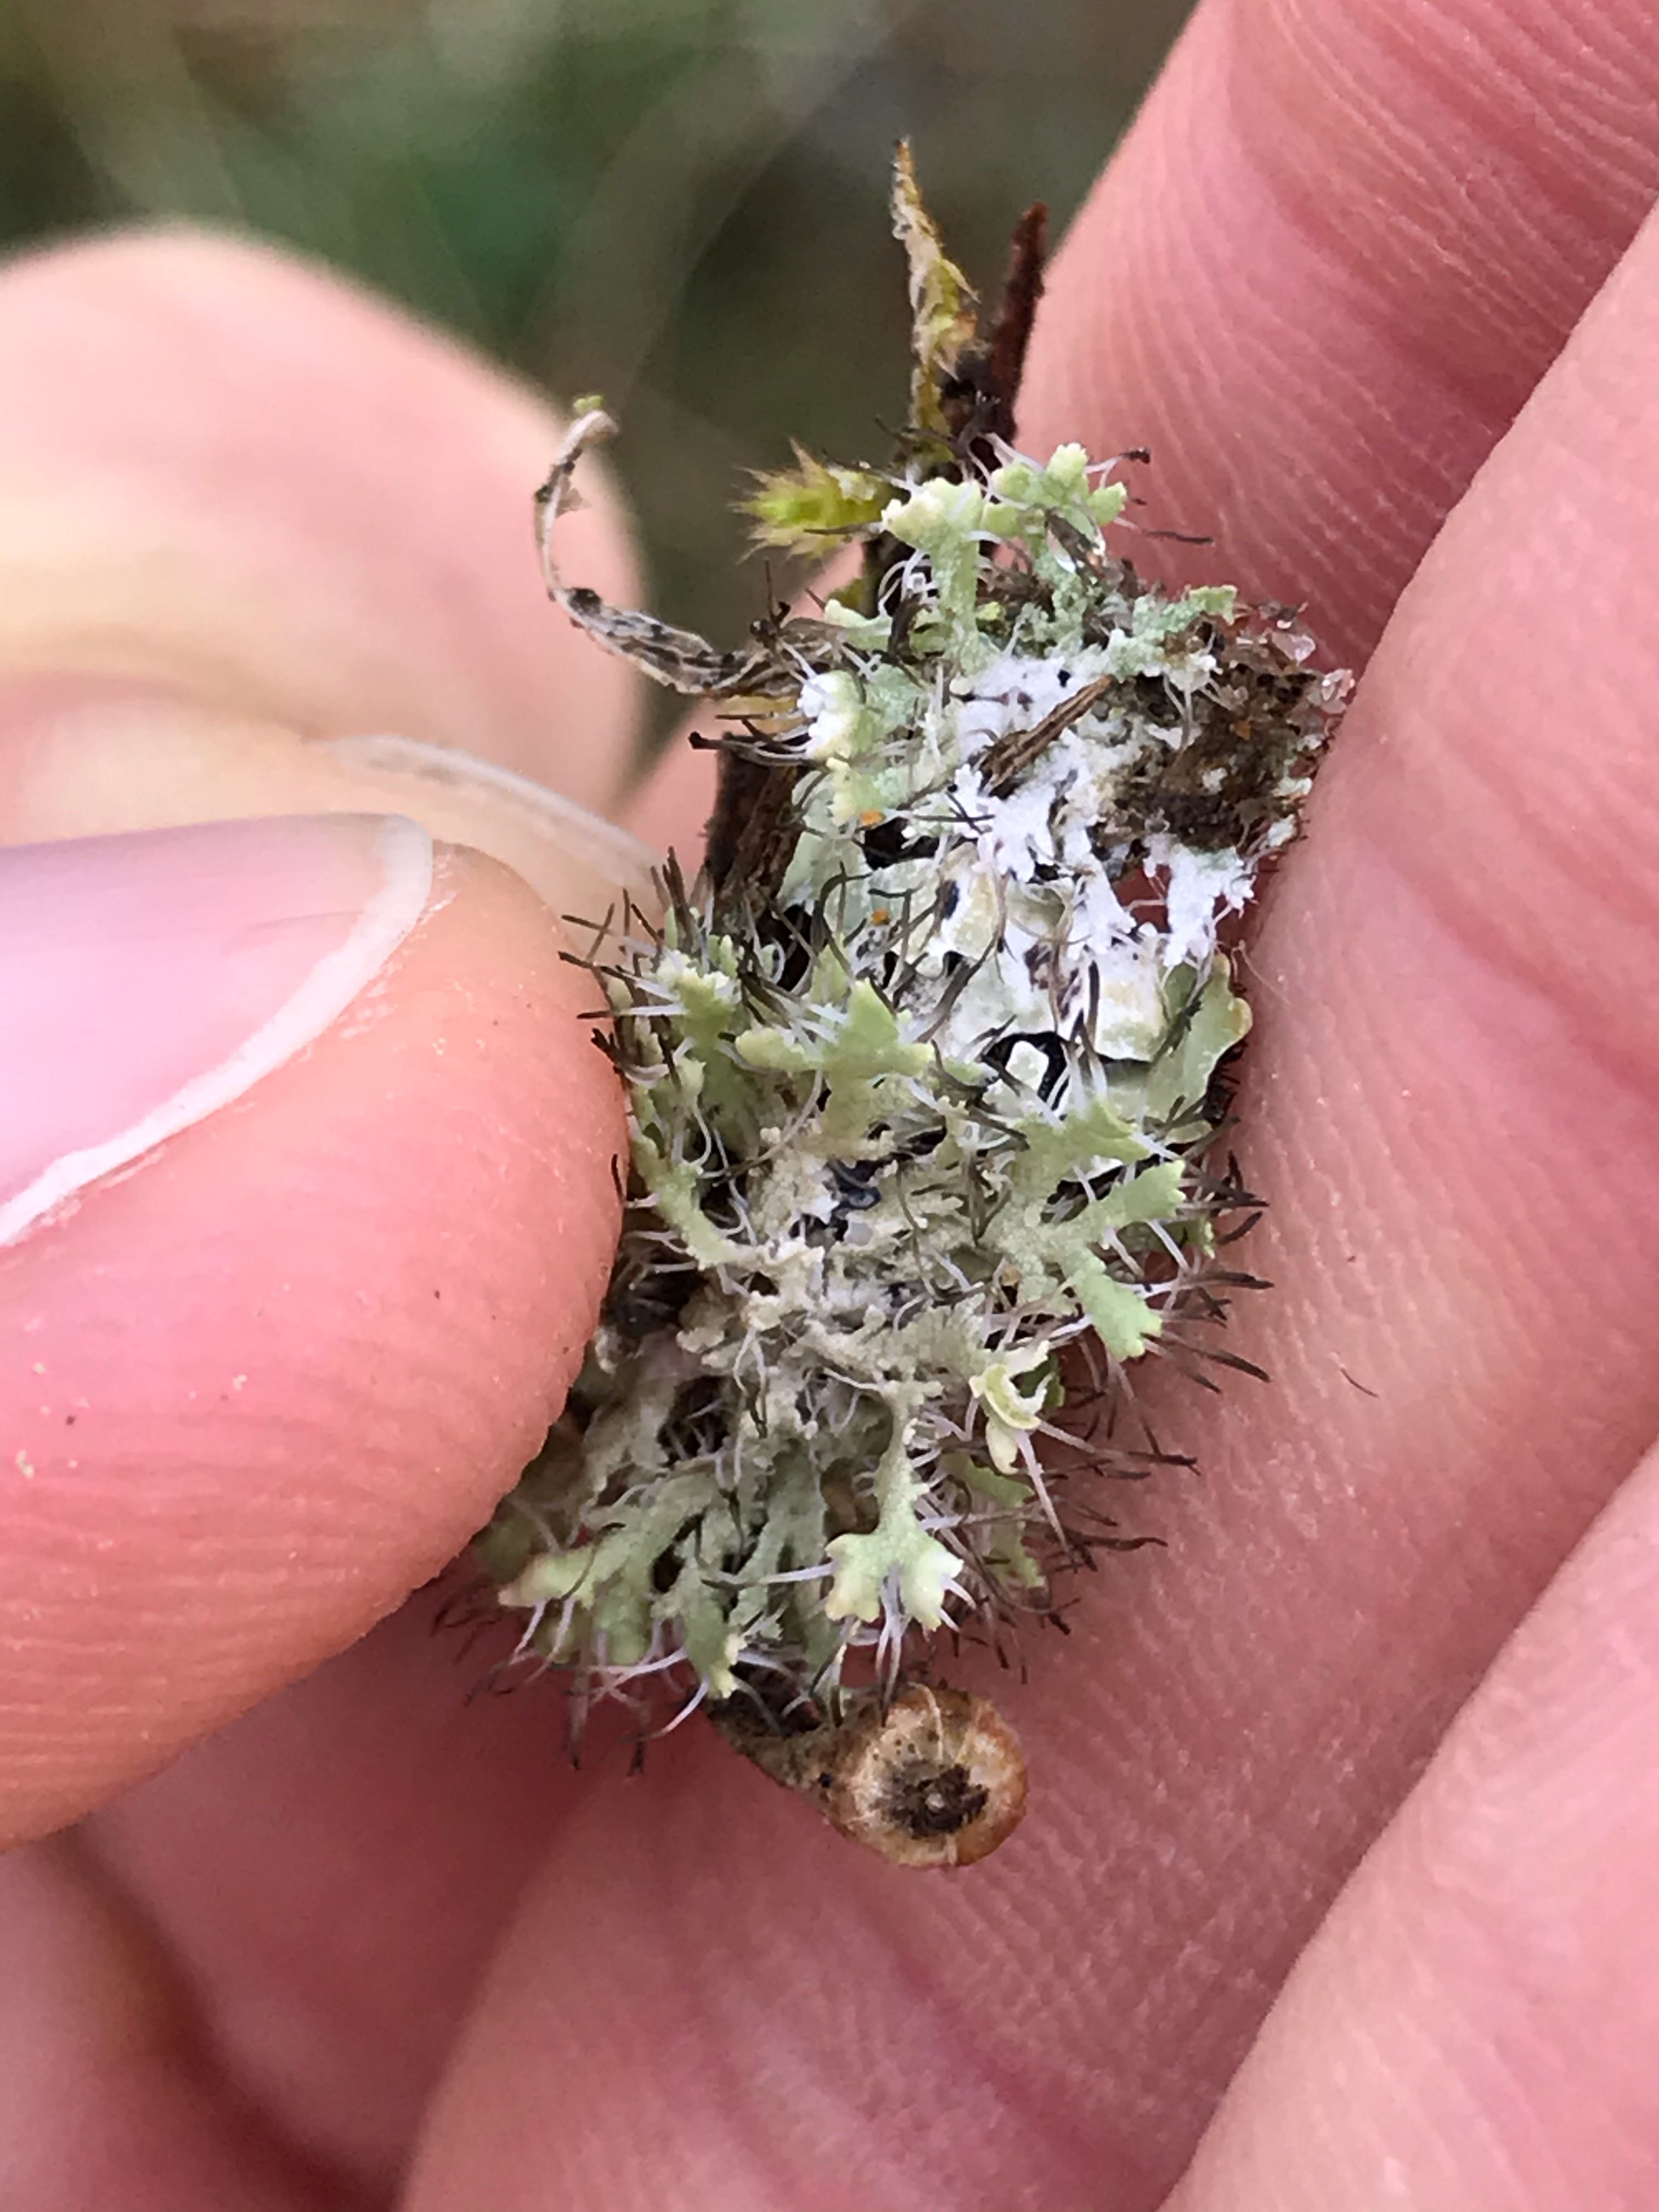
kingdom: Fungi
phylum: Ascomycota
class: Lecanoromycetes
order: Caliciales
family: Physciaceae
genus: Physcia
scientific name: Physcia tenella
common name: spæd rosetlav
